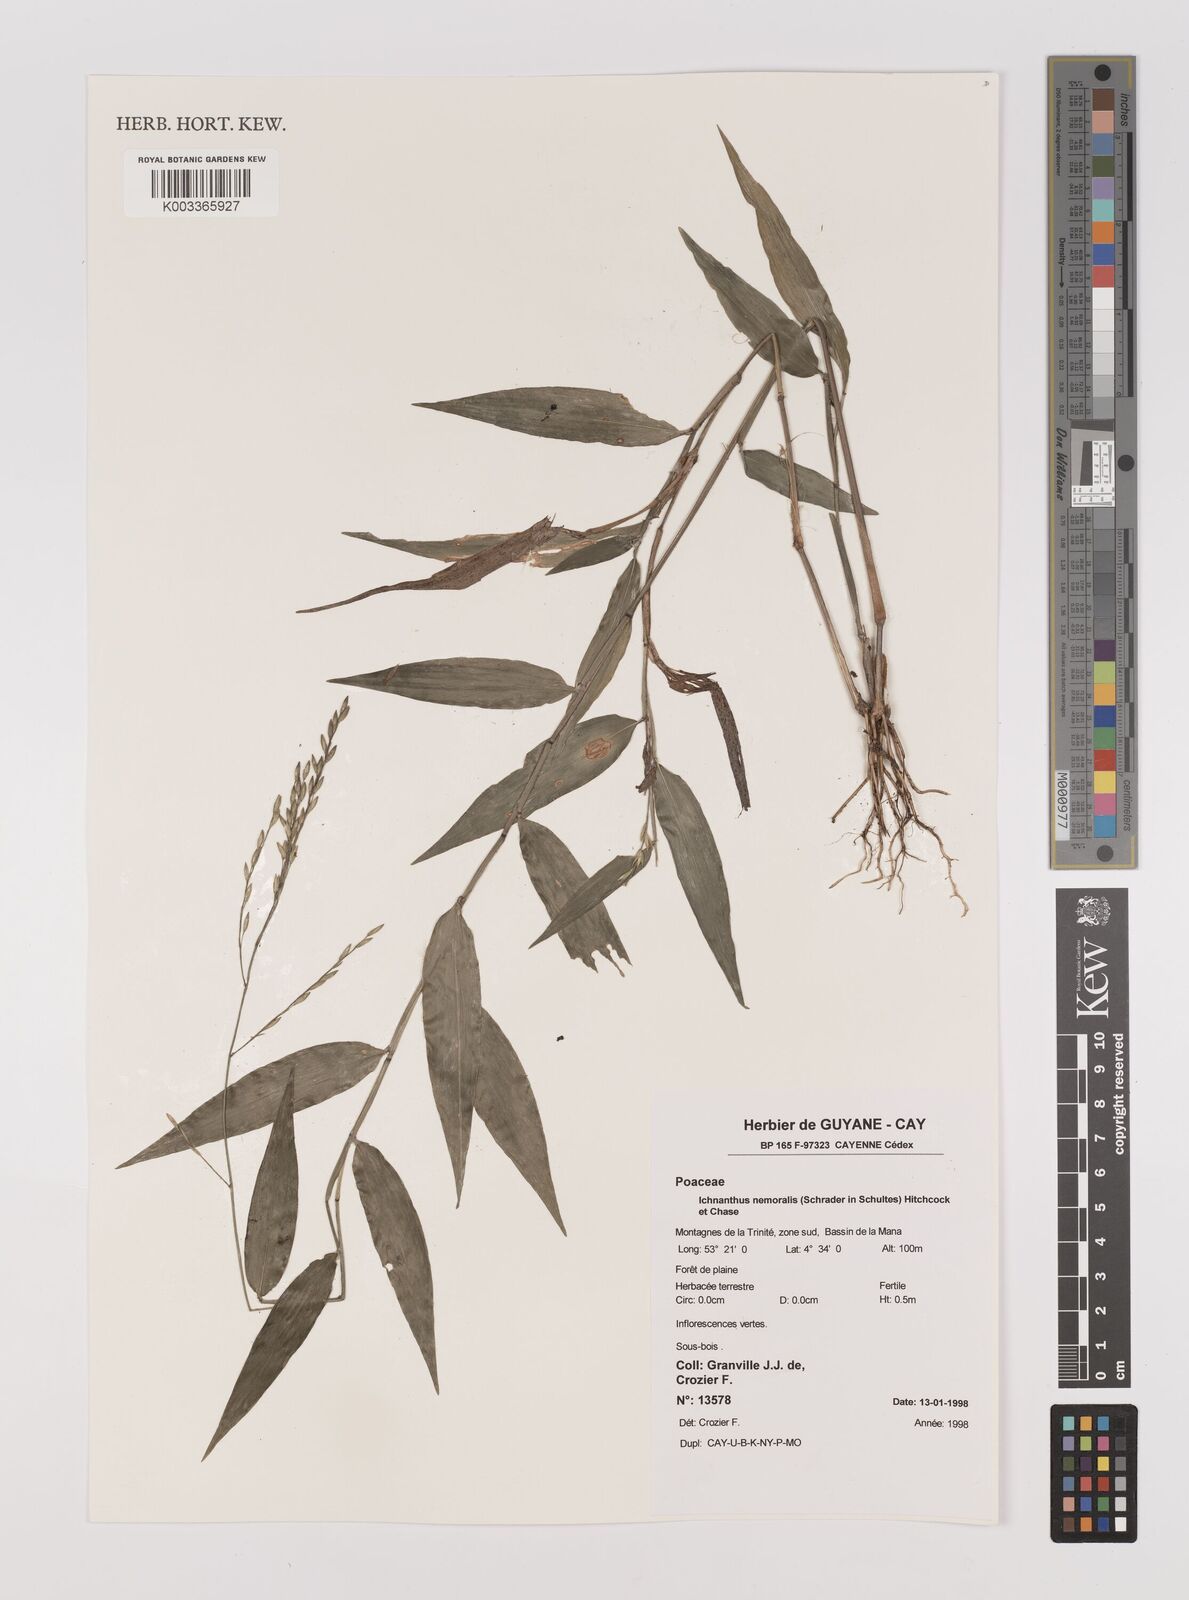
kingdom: Plantae
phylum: Tracheophyta
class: Liliopsida
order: Poales
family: Poaceae
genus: Ichnanthus
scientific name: Ichnanthus nemoralis
